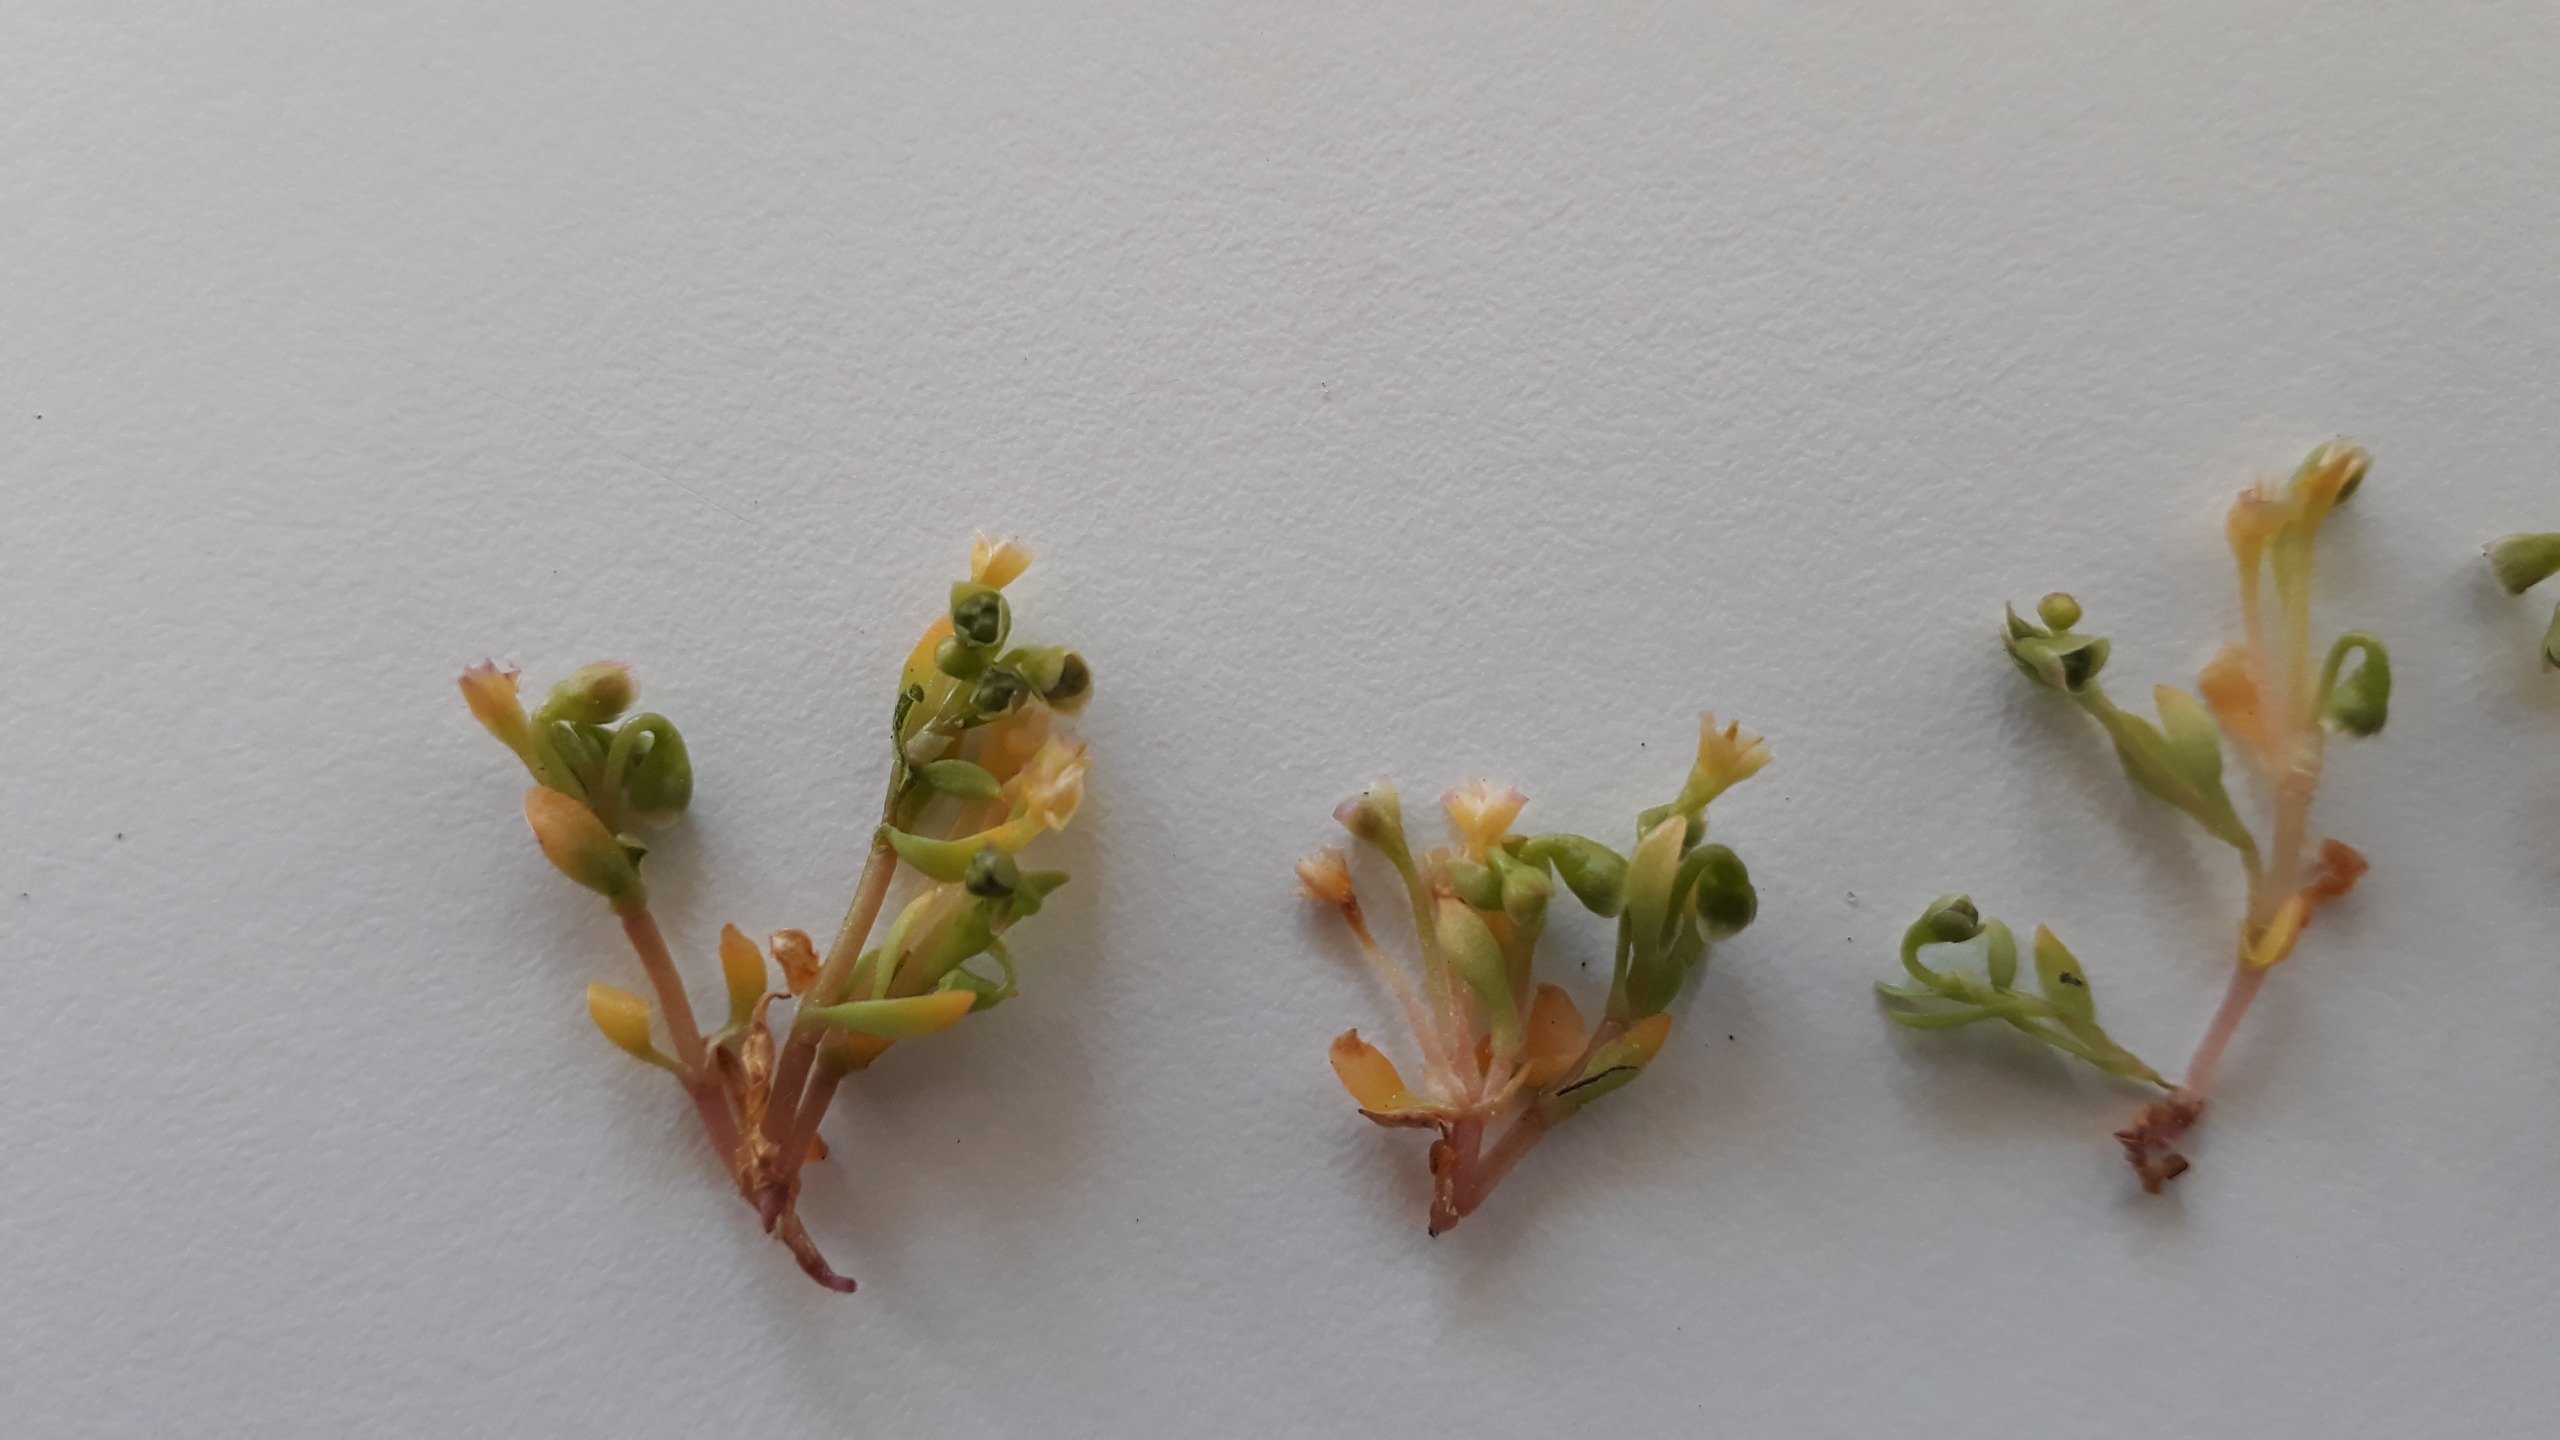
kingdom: Plantae
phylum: Tracheophyta
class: Magnoliopsida
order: Caryophyllales
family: Montiaceae
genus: Montia
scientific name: Montia arvensis
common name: Liden vandarve
